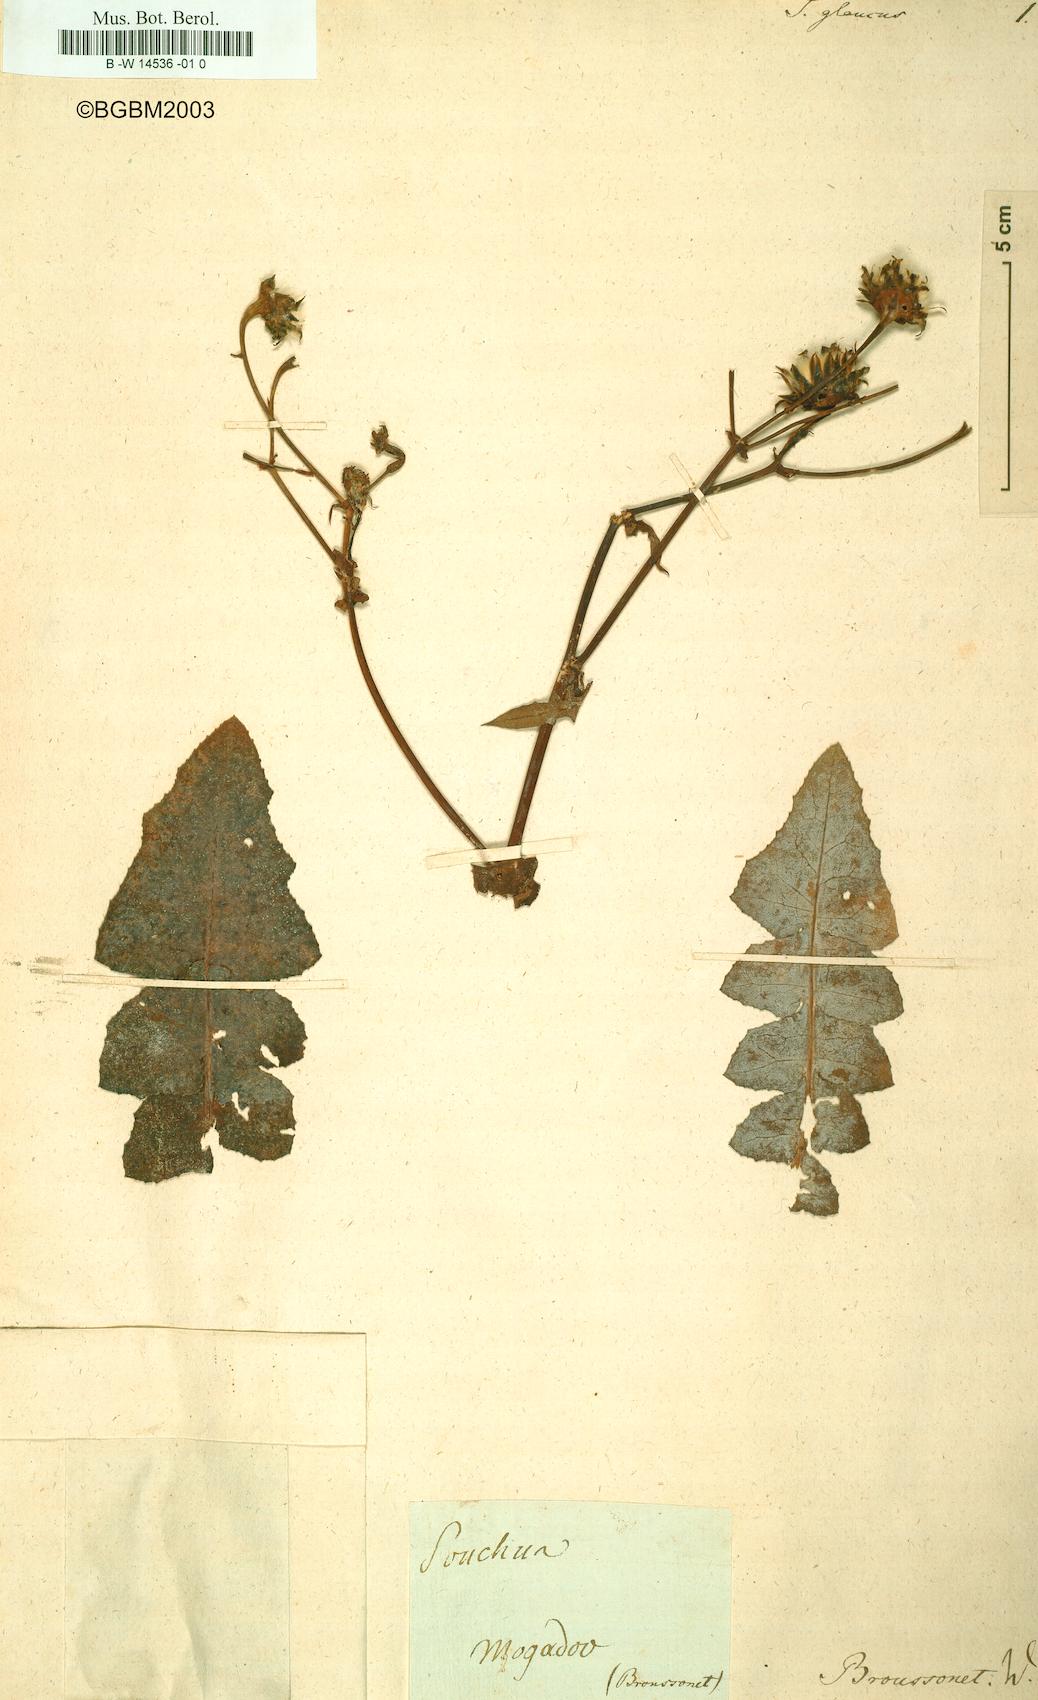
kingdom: Plantae
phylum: Tracheophyta
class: Magnoliopsida
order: Asterales
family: Asteraceae
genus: Sonchus
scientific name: Sonchus pinnatifidus
